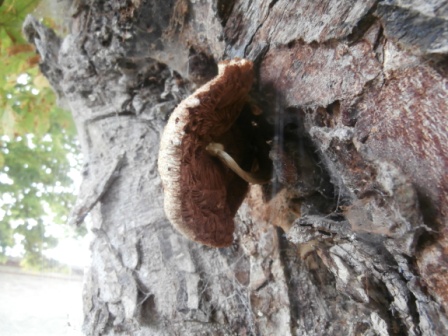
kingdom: Fungi
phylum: Basidiomycota
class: Agaricomycetes
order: Agaricales
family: Pluteaceae
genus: Volvariella
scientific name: Volvariella bombycina
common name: silkehåret posesvamp
